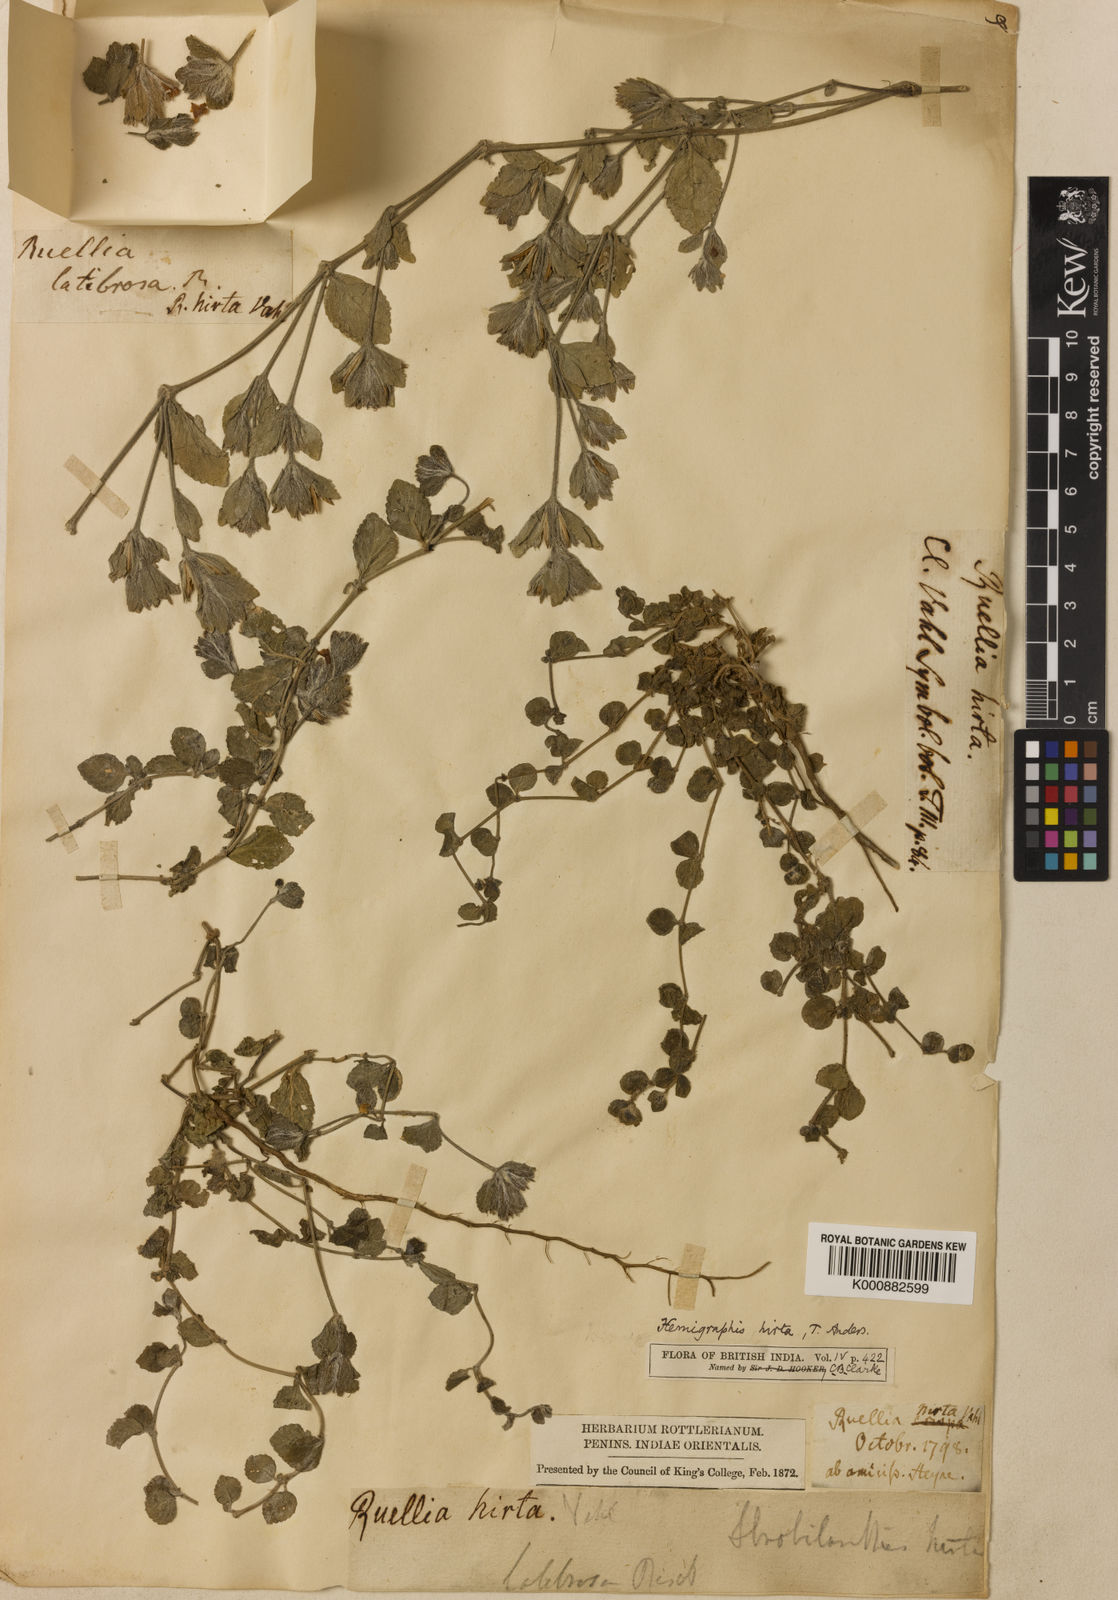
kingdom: Plantae
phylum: Tracheophyta
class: Magnoliopsida
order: Lamiales
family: Acanthaceae
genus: Strobilanthes
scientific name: Strobilanthes hirta
